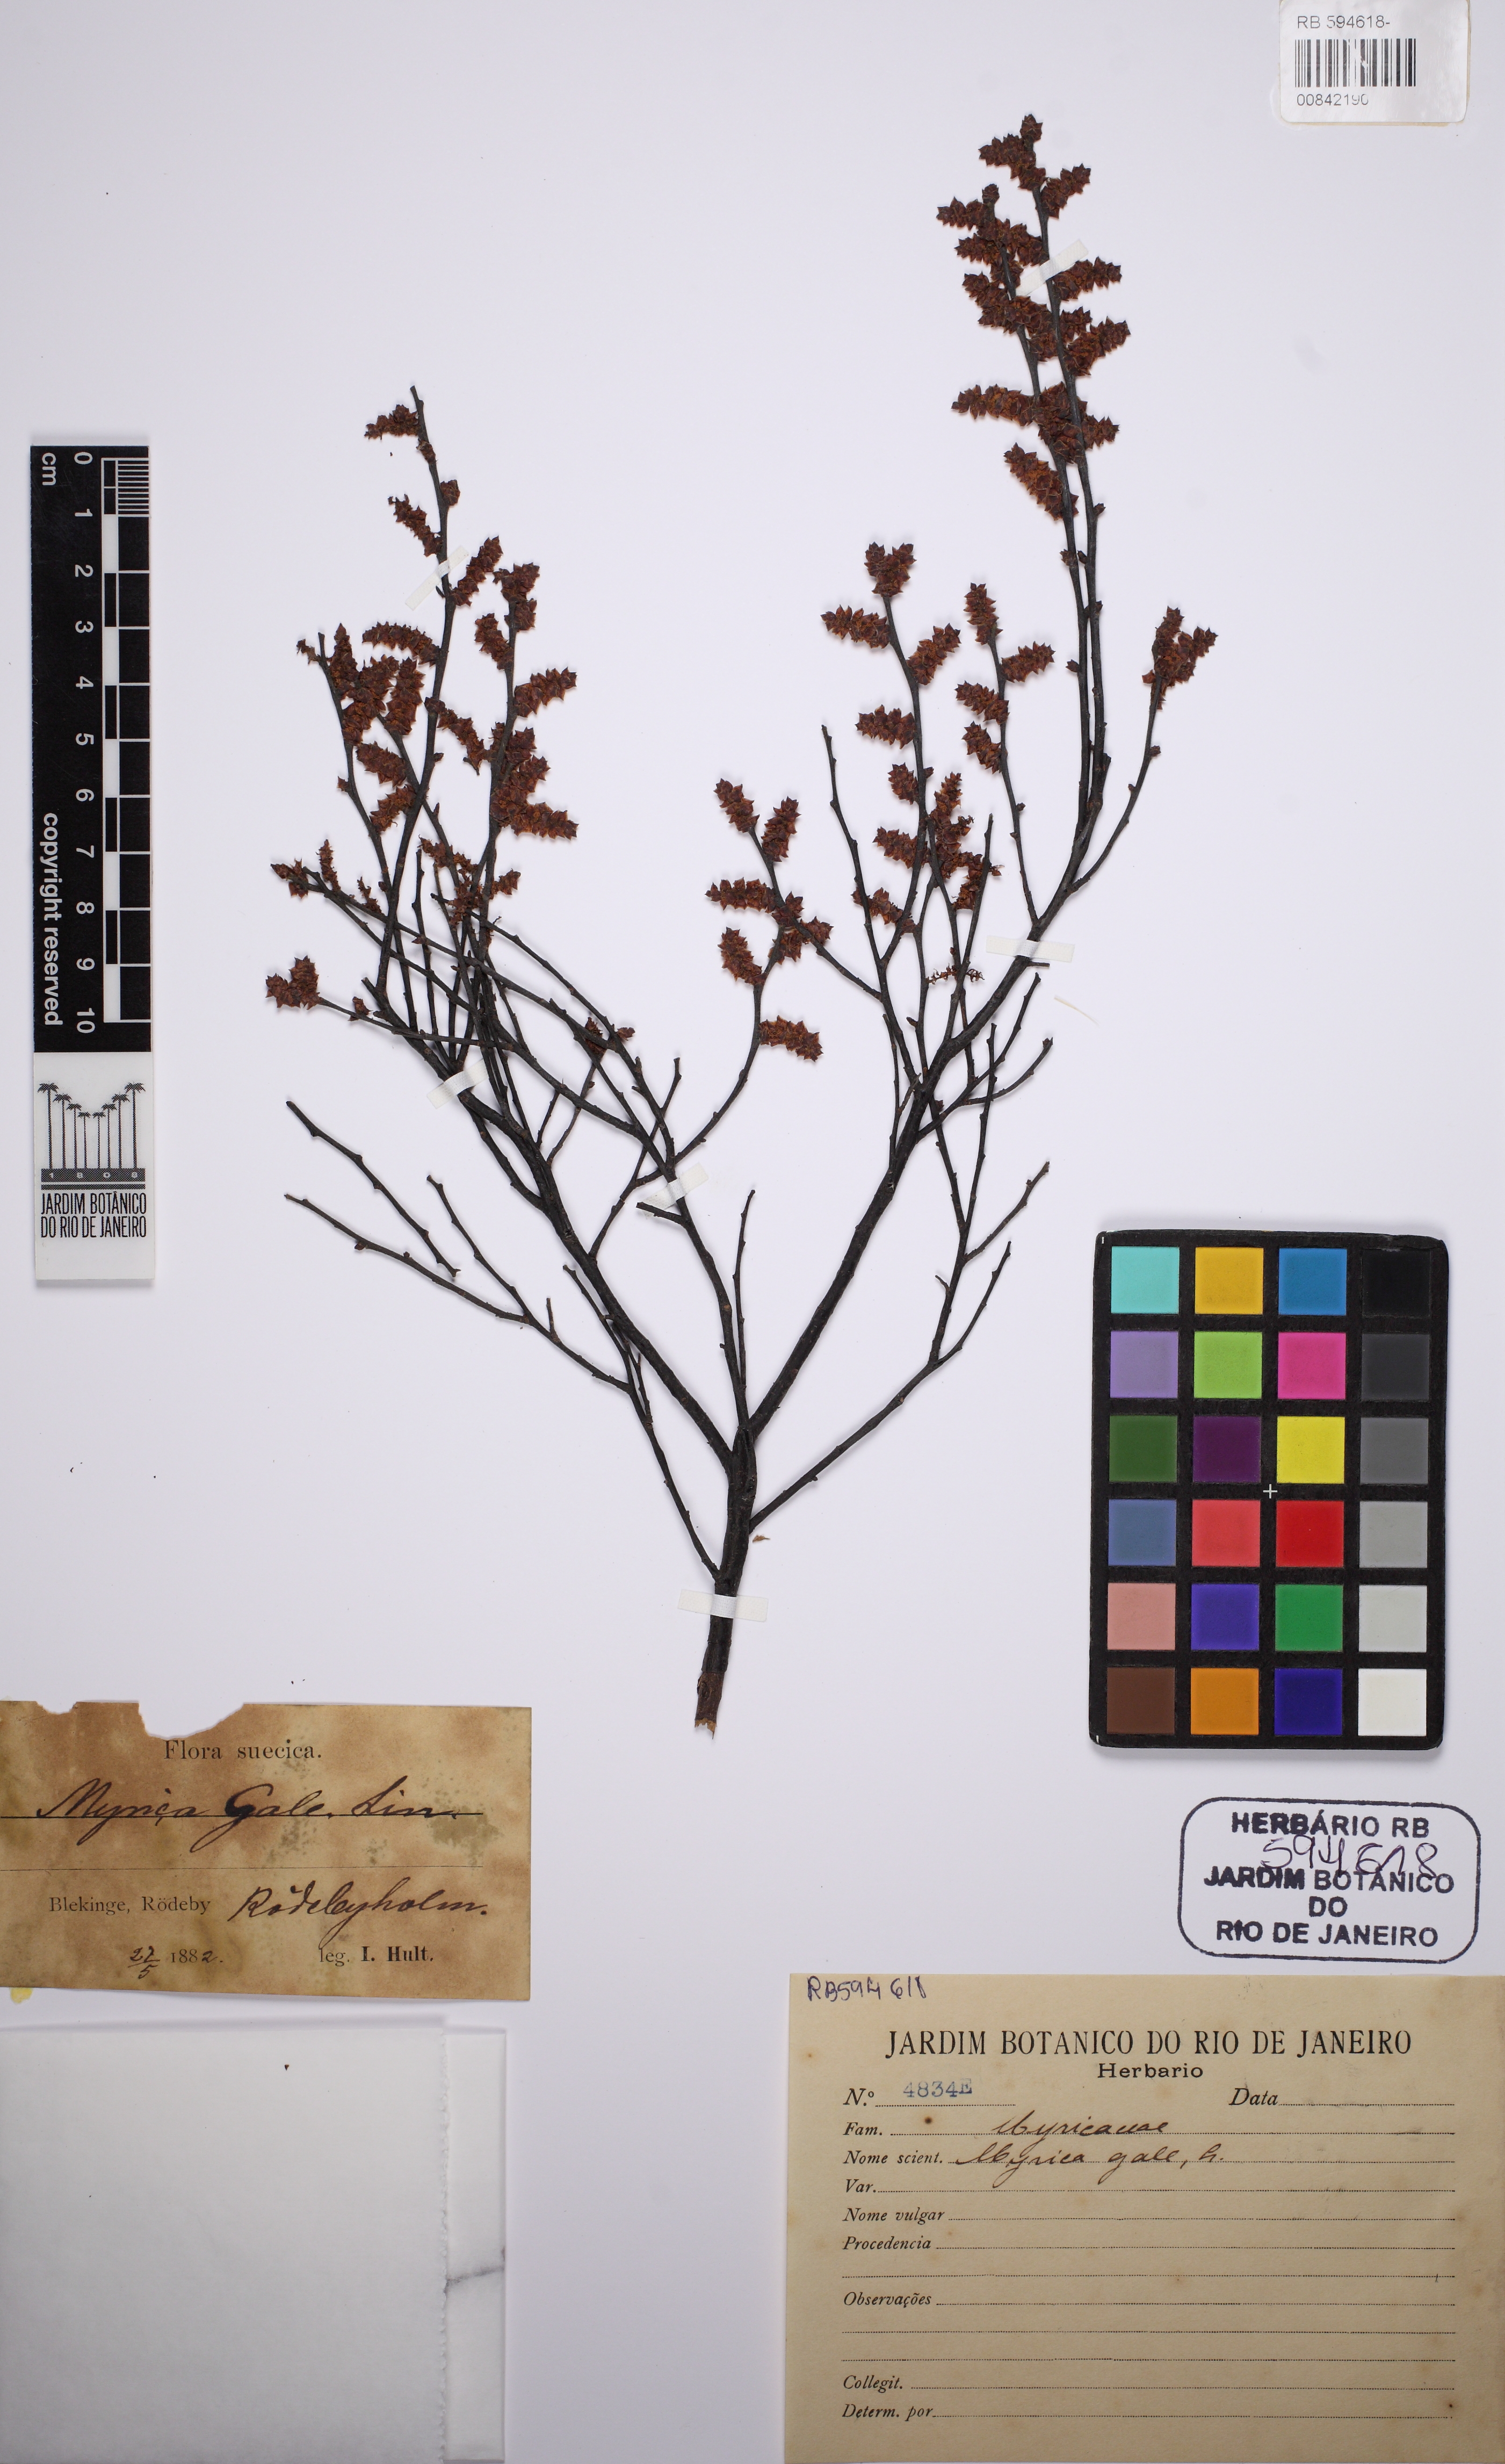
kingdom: Plantae
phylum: Tracheophyta
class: Magnoliopsida
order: Fagales
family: Myricaceae
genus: Myrica
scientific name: Myrica gale
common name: Sweet gale
